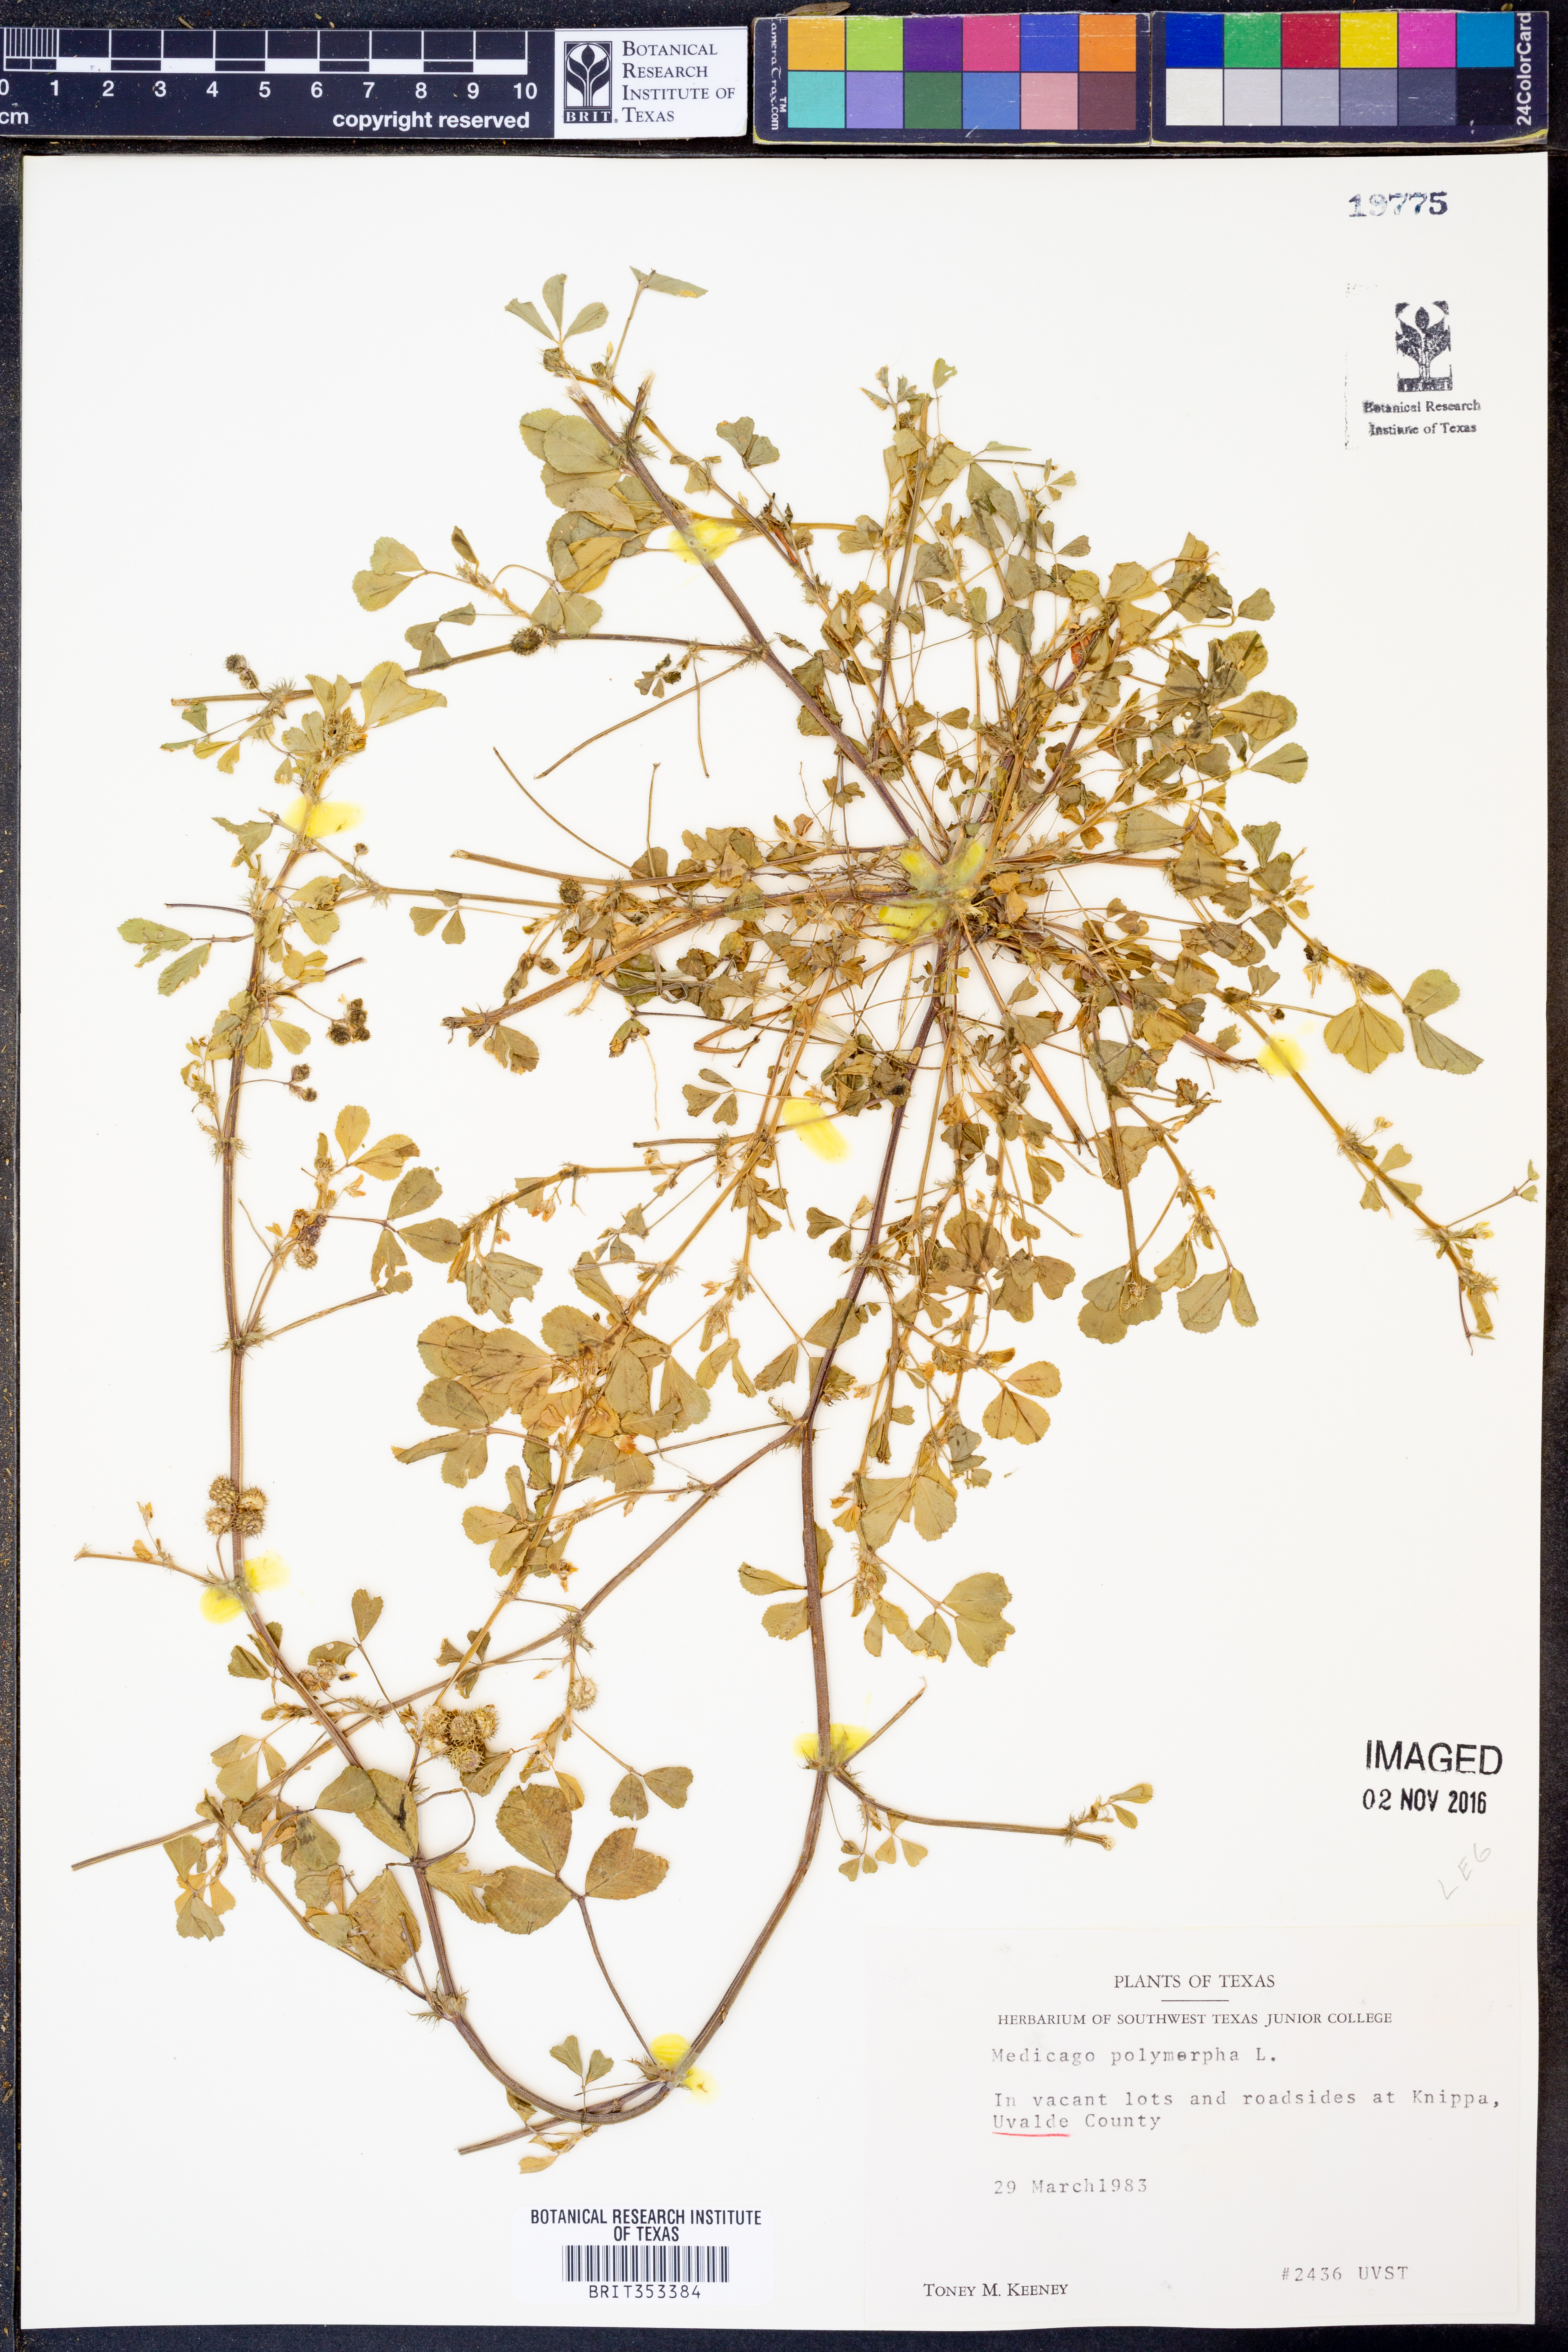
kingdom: Plantae
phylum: Tracheophyta
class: Magnoliopsida
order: Fabales
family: Fabaceae
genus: Medicago
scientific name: Medicago polymorpha
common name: Burclover
